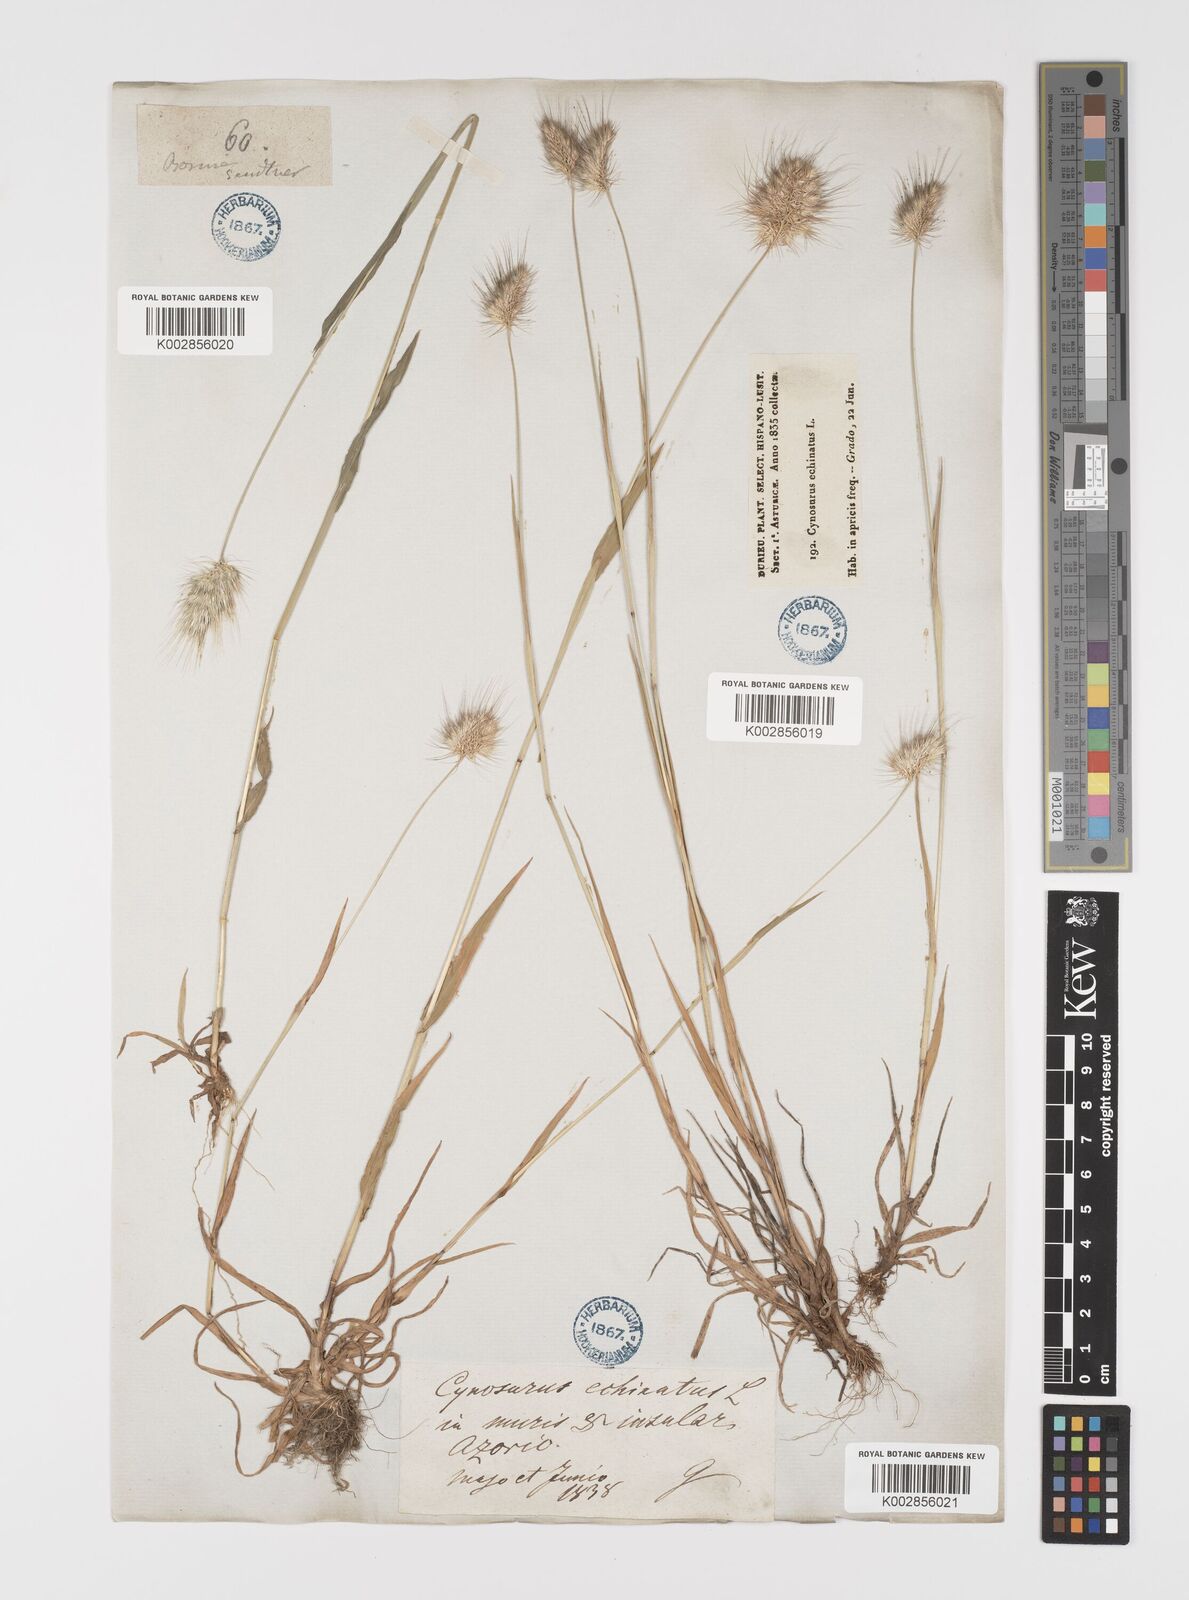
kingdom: Plantae
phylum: Tracheophyta
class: Liliopsida
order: Poales
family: Poaceae
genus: Cynosurus
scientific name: Cynosurus echinatus
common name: Rough dog's-tail
